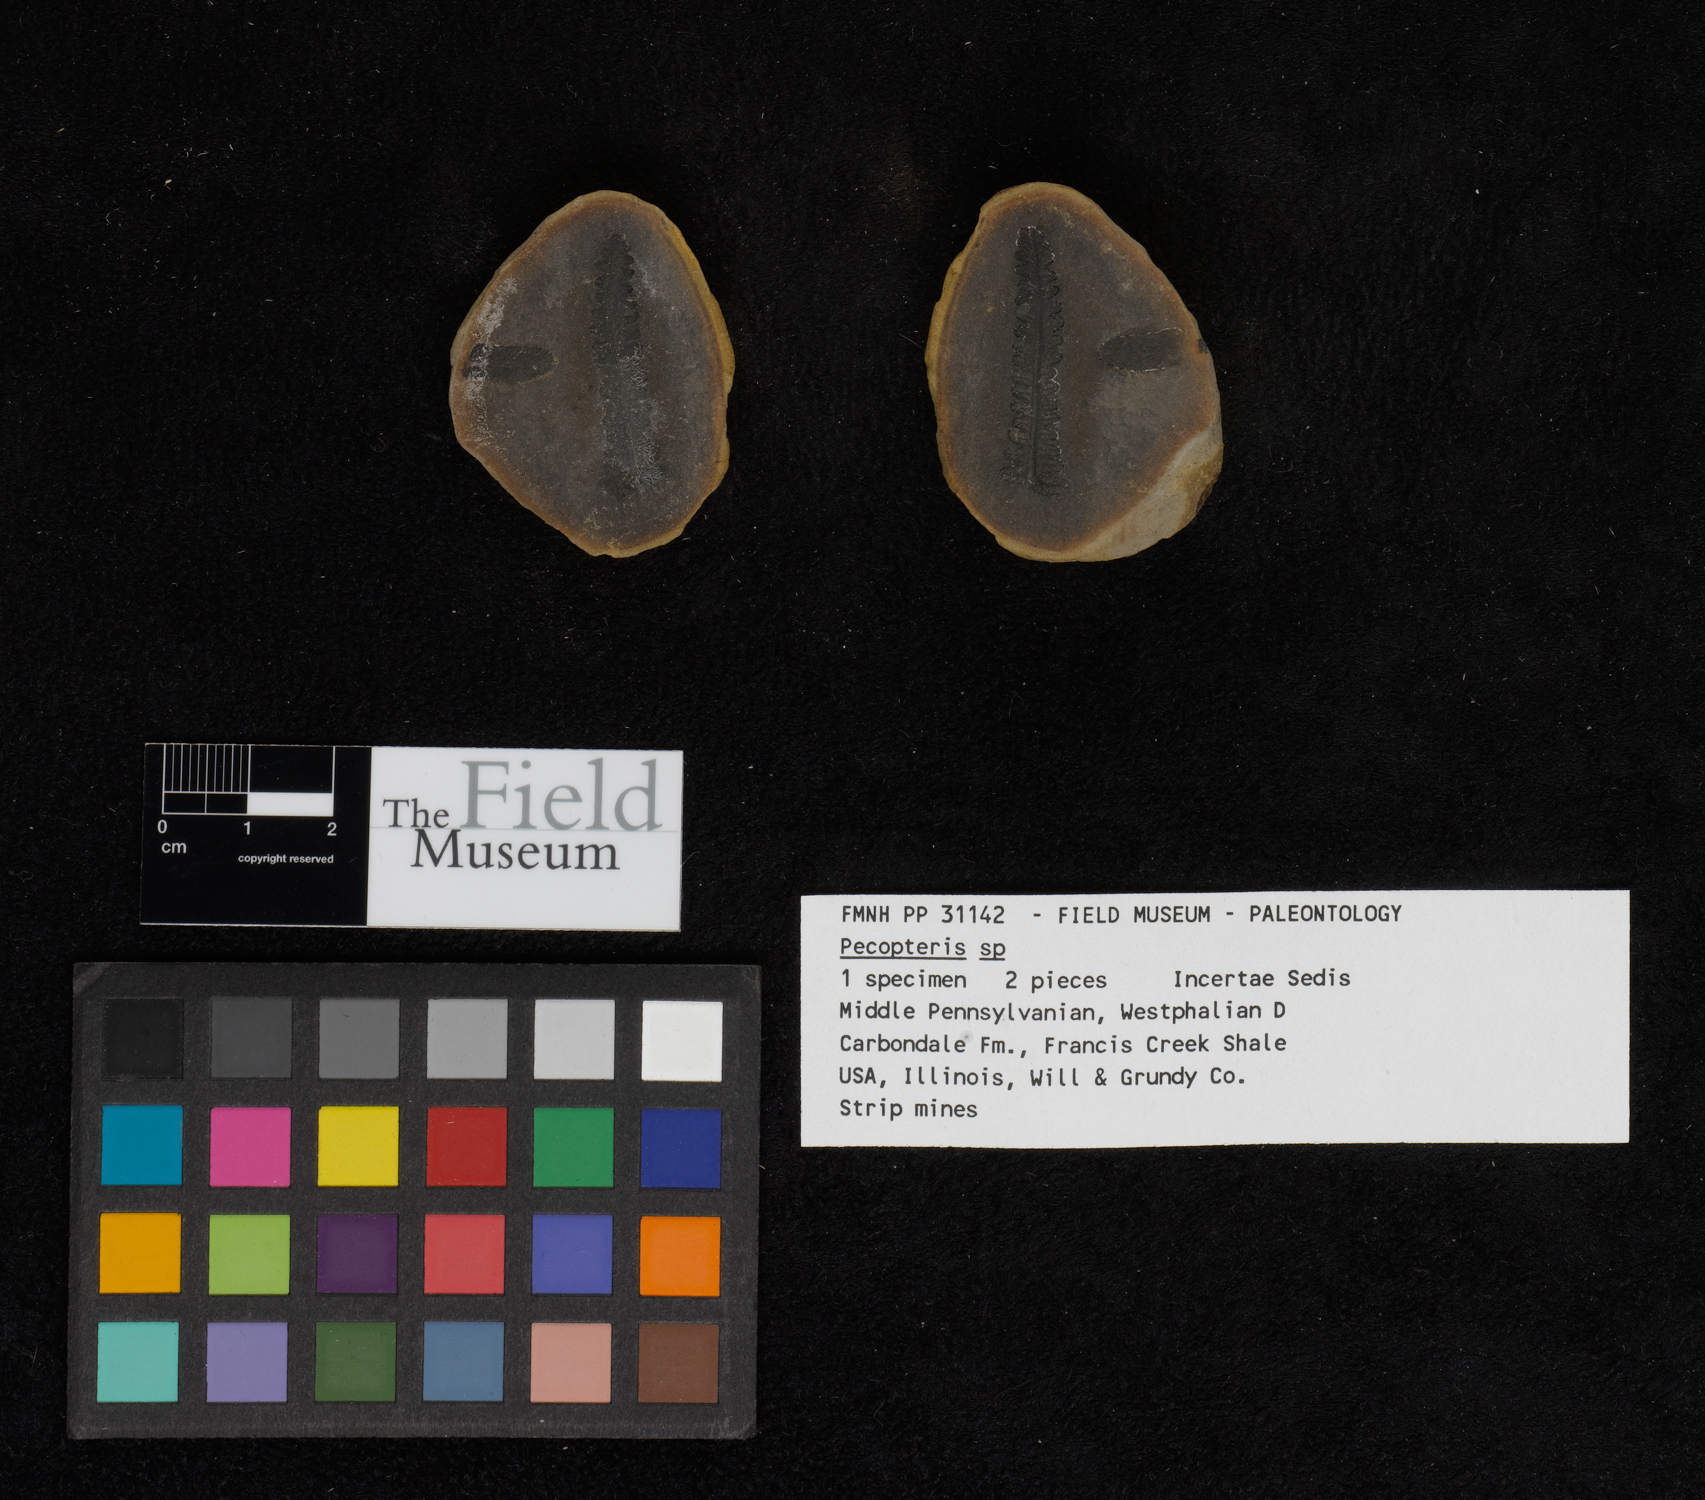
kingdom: Plantae
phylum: Tracheophyta
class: Polypodiopsida
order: Marattiales
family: Asterothecaceae
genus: Pecopteris
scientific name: Pecopteris
